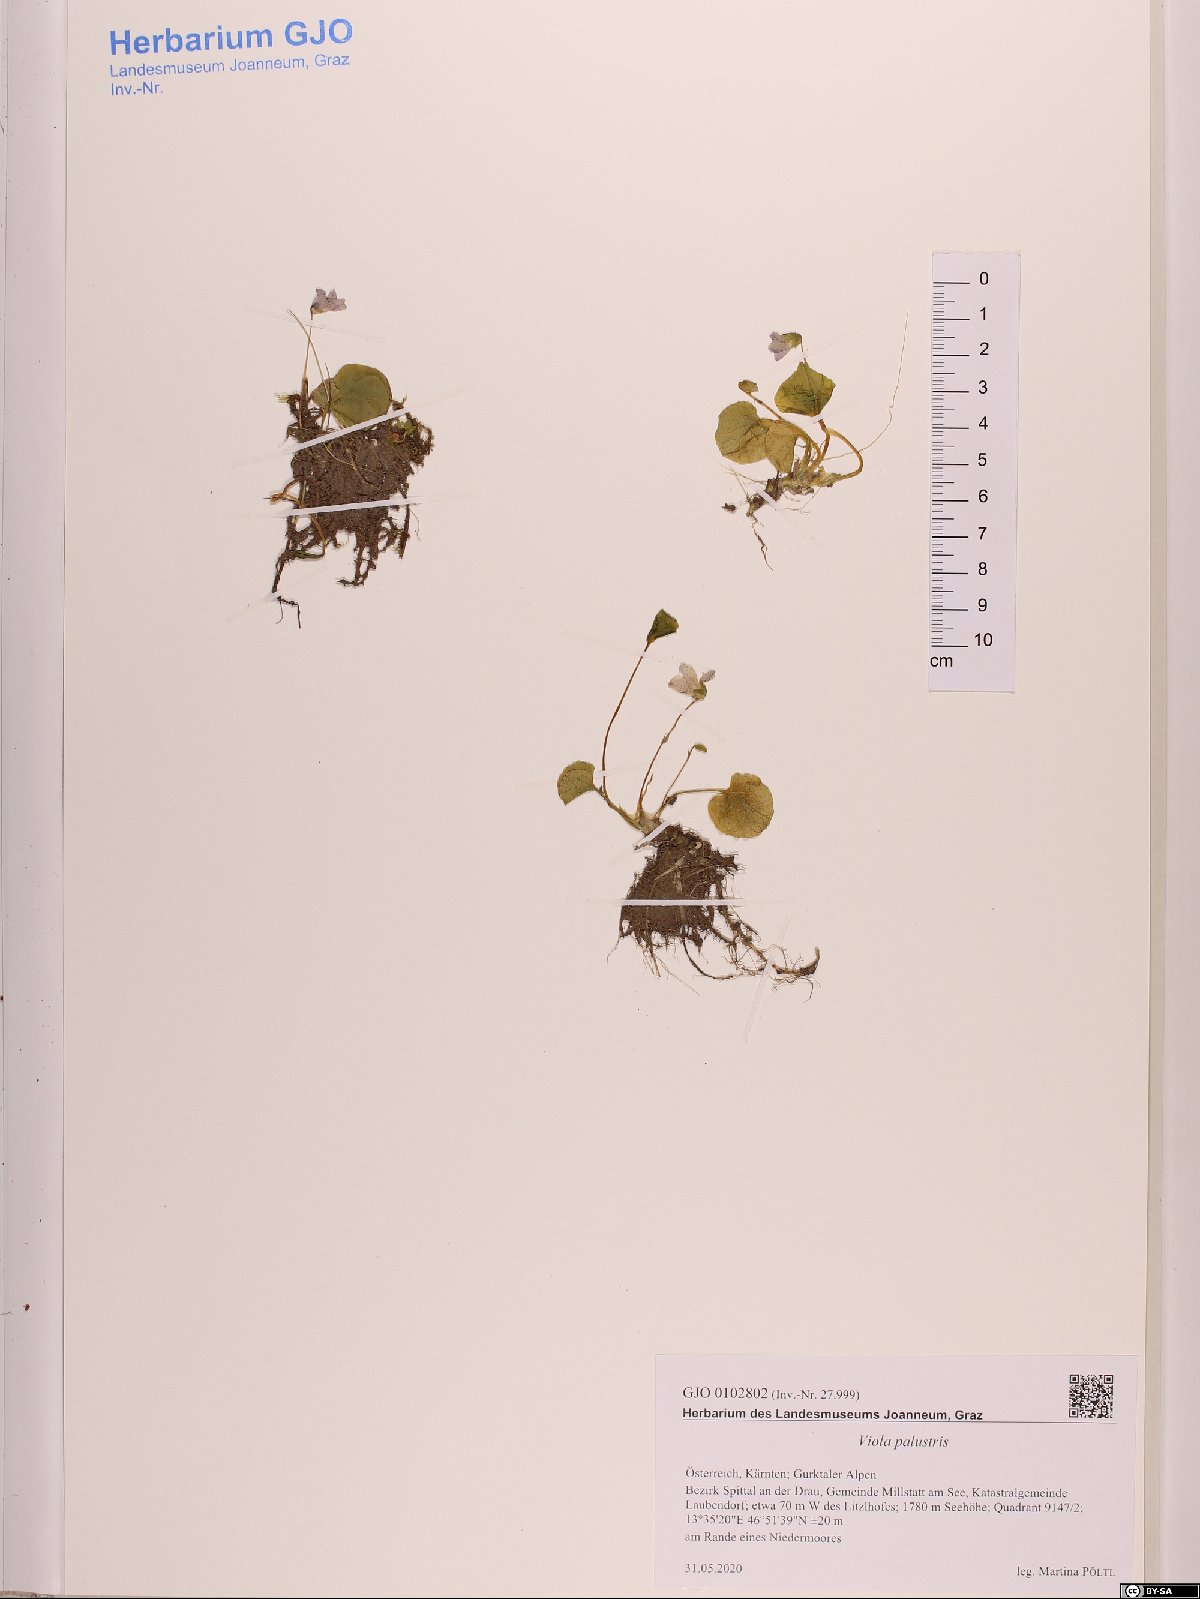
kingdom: Plantae
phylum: Tracheophyta
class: Magnoliopsida
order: Malpighiales
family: Violaceae
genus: Viola
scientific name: Viola palustris
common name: Marsh violet
